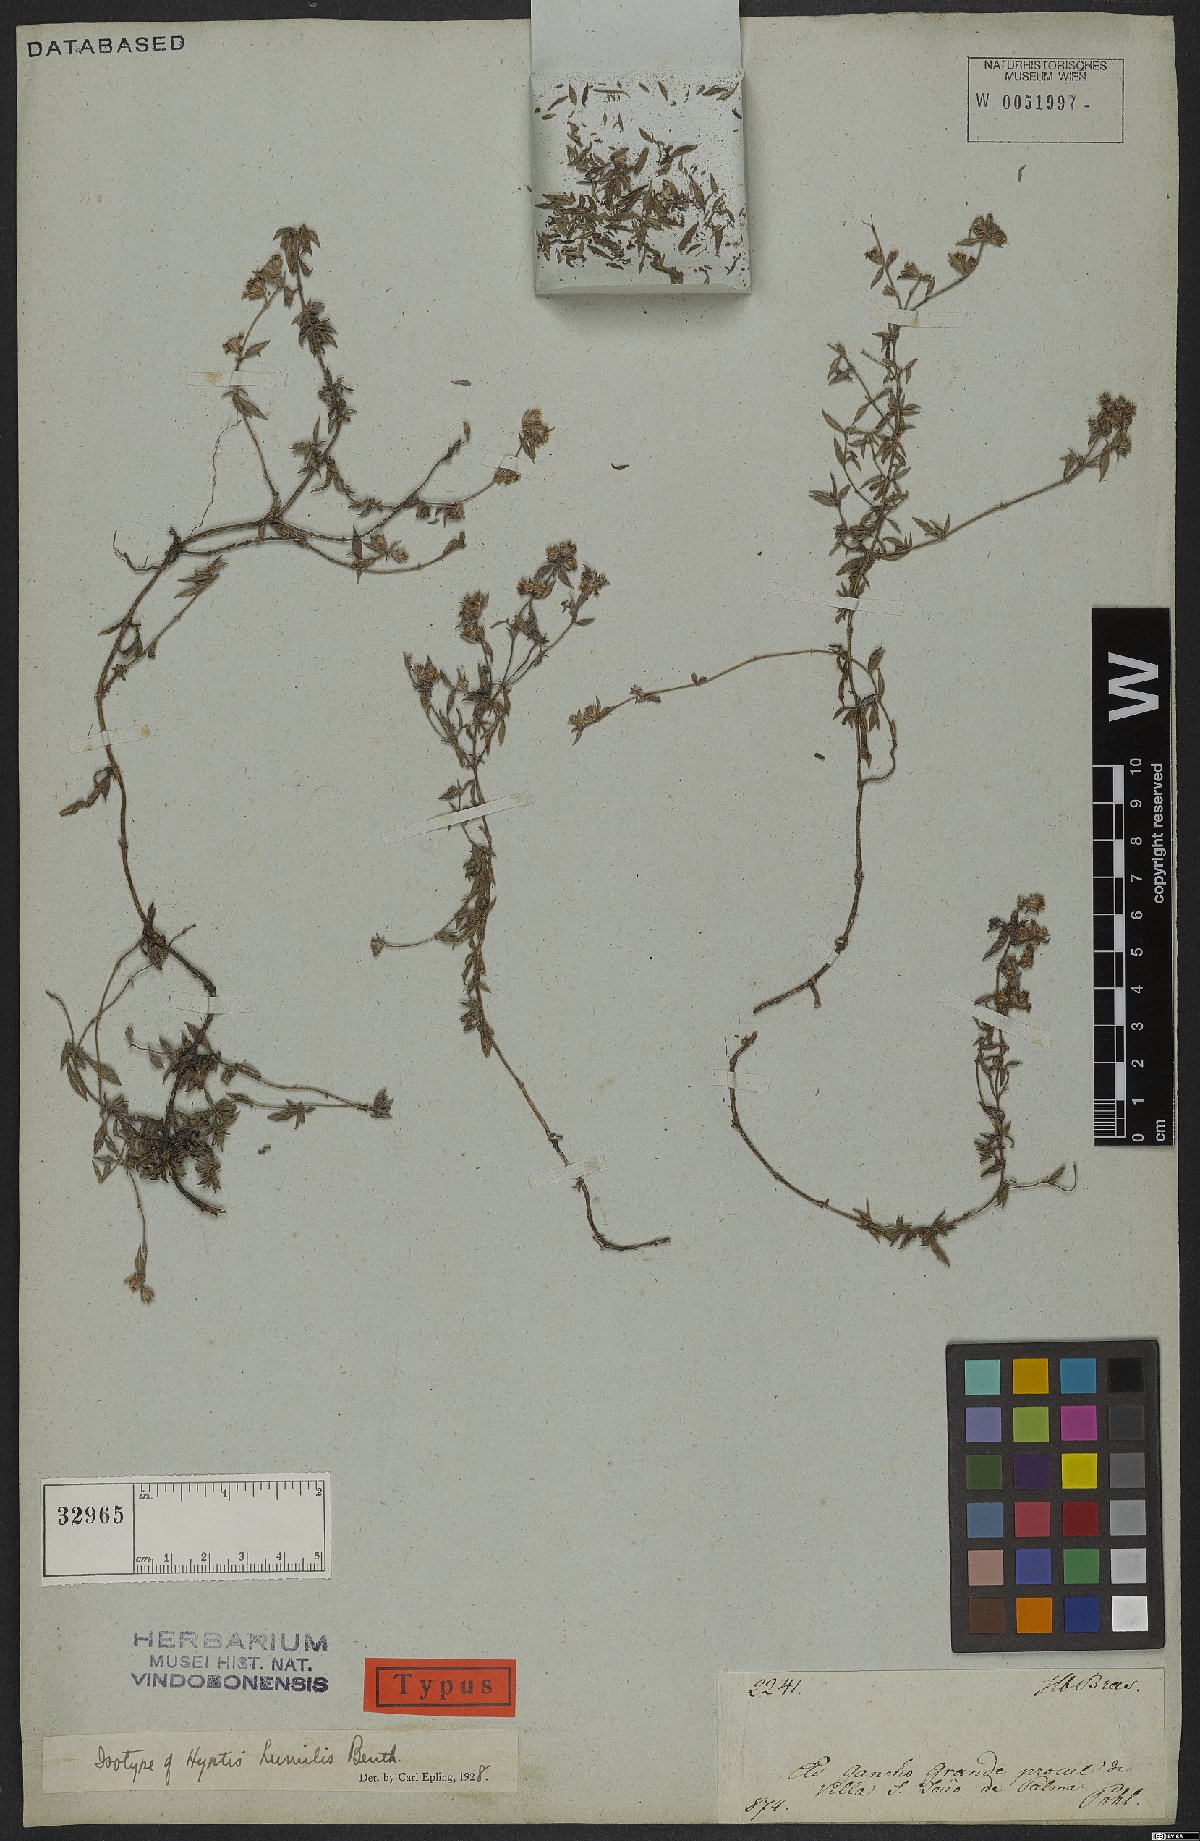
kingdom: Plantae
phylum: Tracheophyta
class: Magnoliopsida
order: Lamiales
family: Lamiaceae
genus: Hyptis
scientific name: Hyptis humilis
